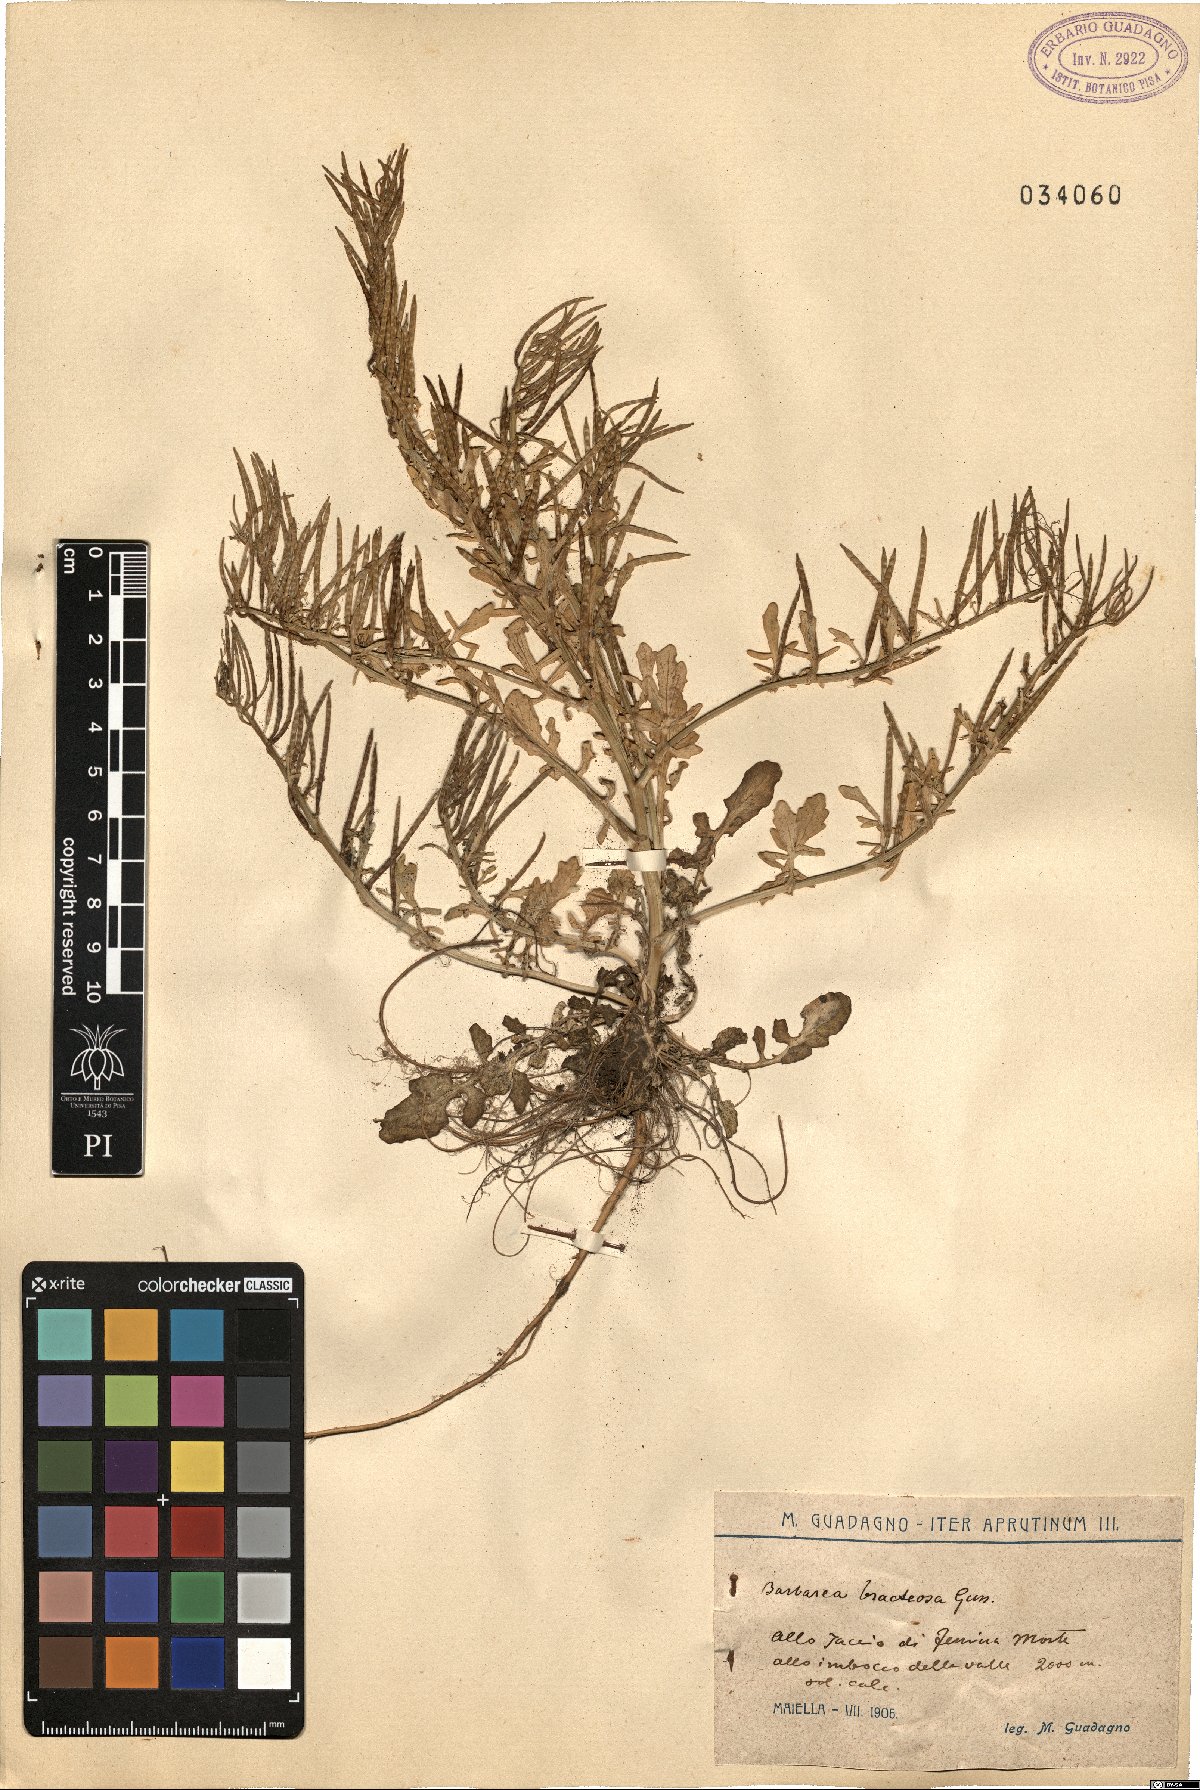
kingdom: Plantae
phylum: Tracheophyta
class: Magnoliopsida
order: Brassicales
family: Brassicaceae
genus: Barbarea
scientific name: Barbarea bracteosa
